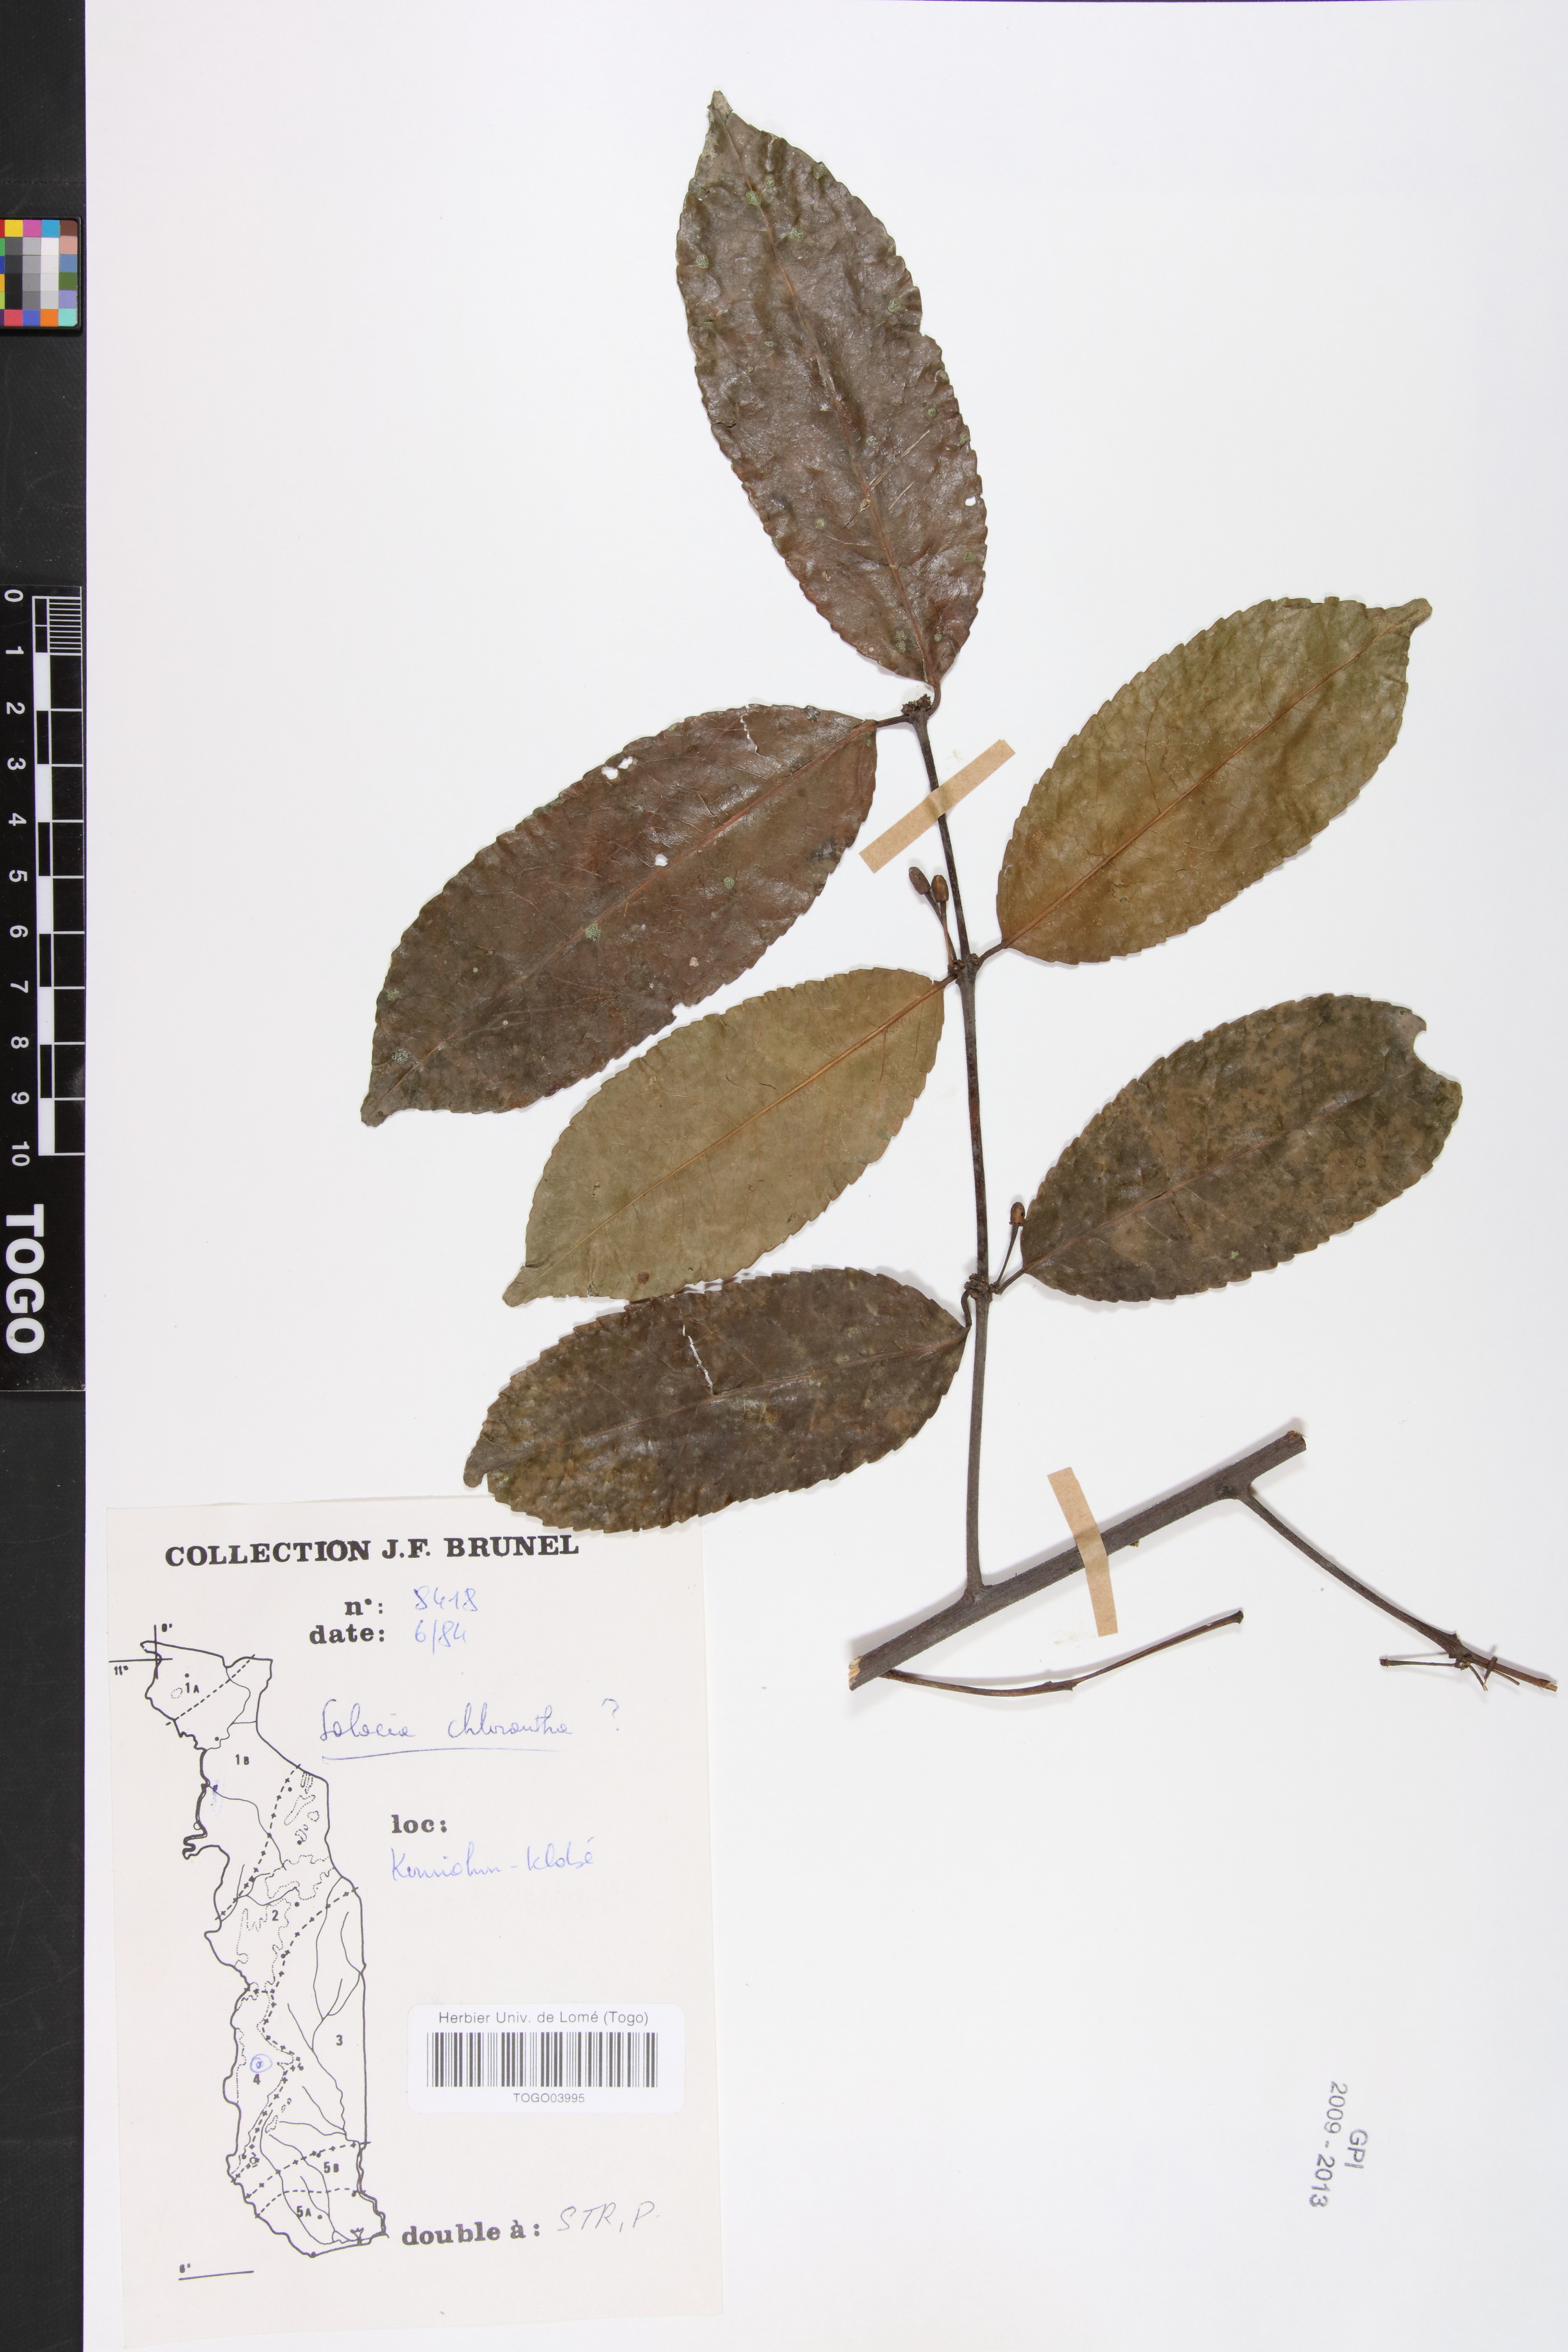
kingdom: Plantae
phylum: Tracheophyta
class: Magnoliopsida
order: Celastrales
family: Celastraceae
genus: Salacia
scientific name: Salacia chlorantha
